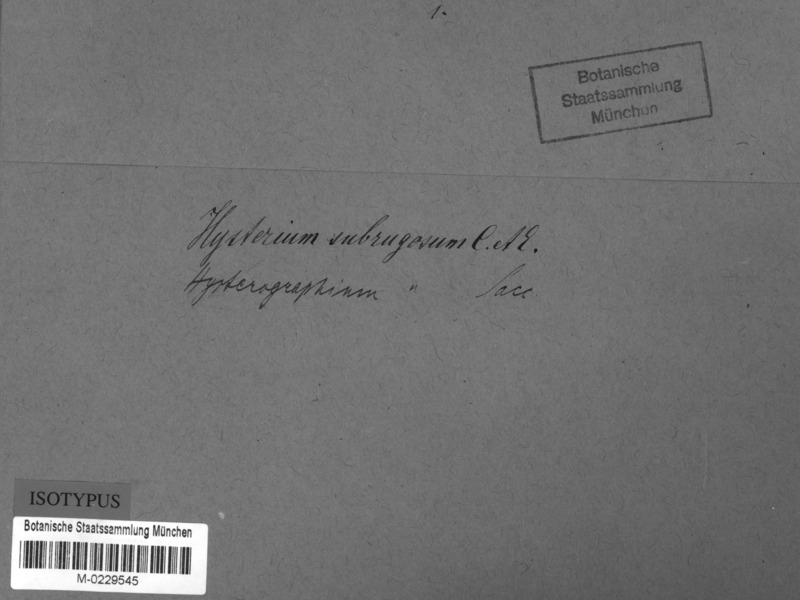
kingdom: Fungi
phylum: Ascomycota
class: Dothideomycetes
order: Hysteriales
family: Hysteriaceae
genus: Gloniopsis
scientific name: Gloniopsis subrugosa
